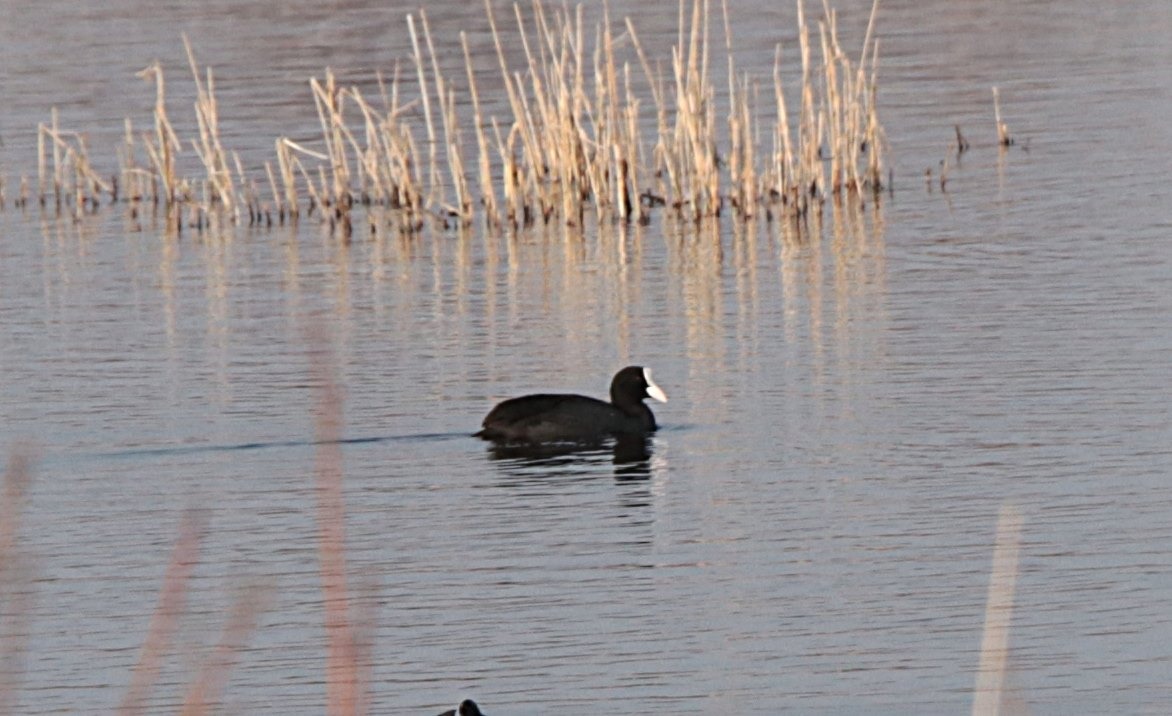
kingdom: Animalia
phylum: Chordata
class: Aves
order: Gruiformes
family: Rallidae
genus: Fulica
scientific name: Fulica atra
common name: Blishøne
